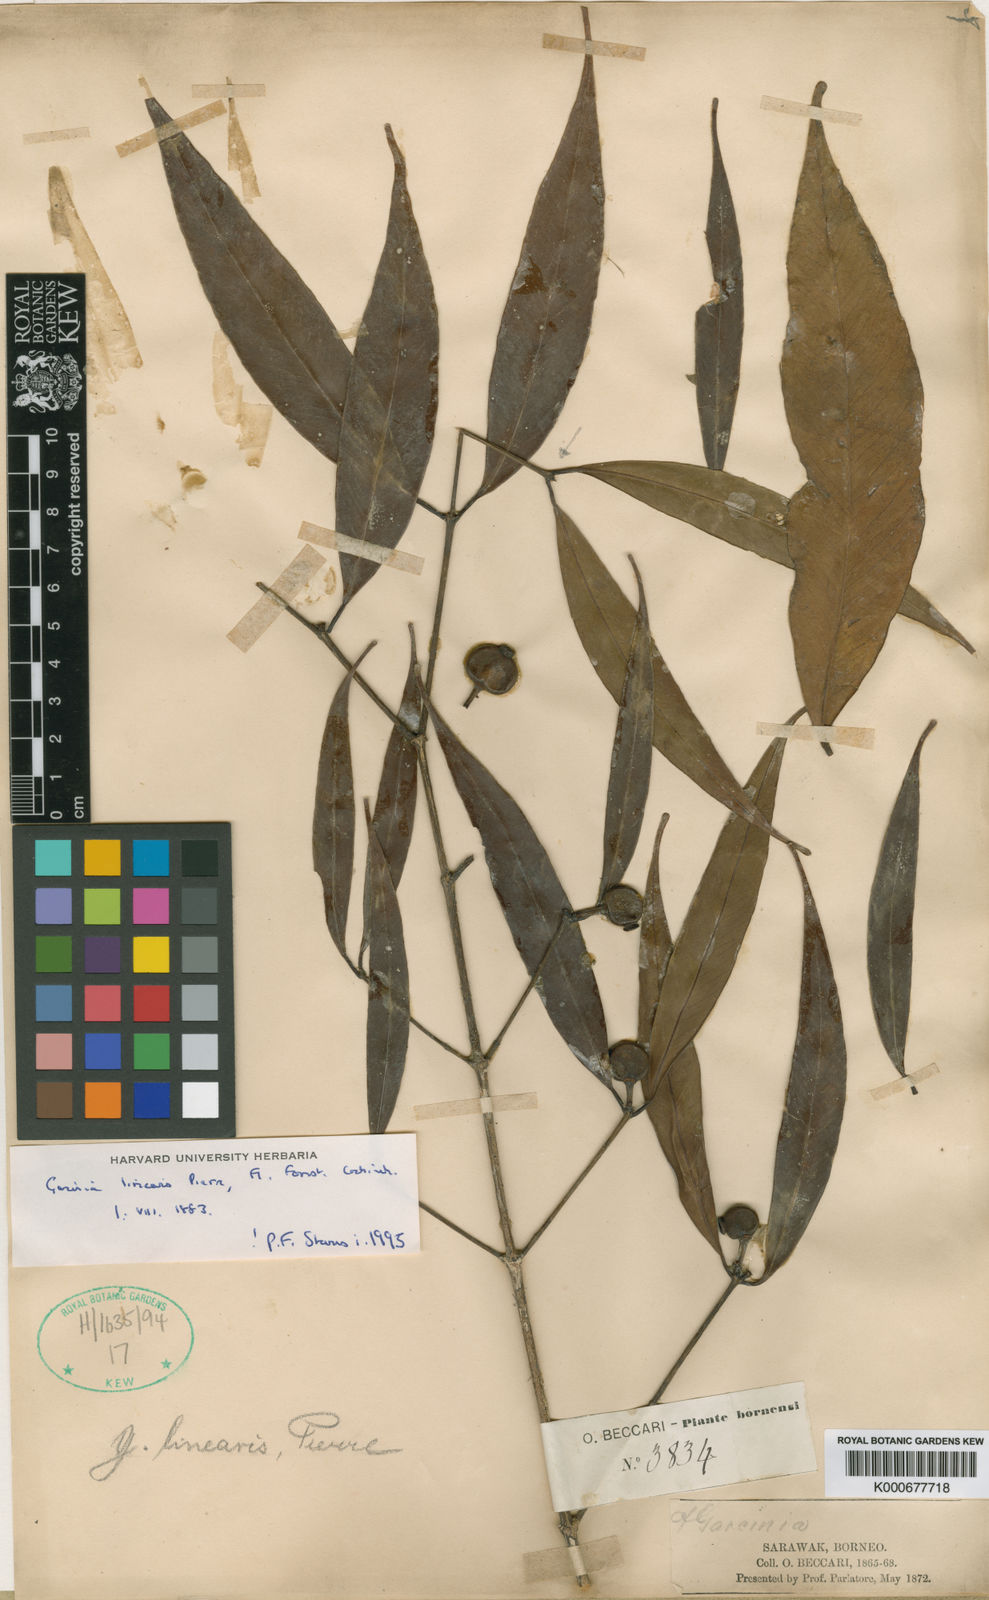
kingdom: Plantae
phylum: Tracheophyta
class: Magnoliopsida
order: Malpighiales
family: Clusiaceae
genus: Garcinia
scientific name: Garcinia linearis
